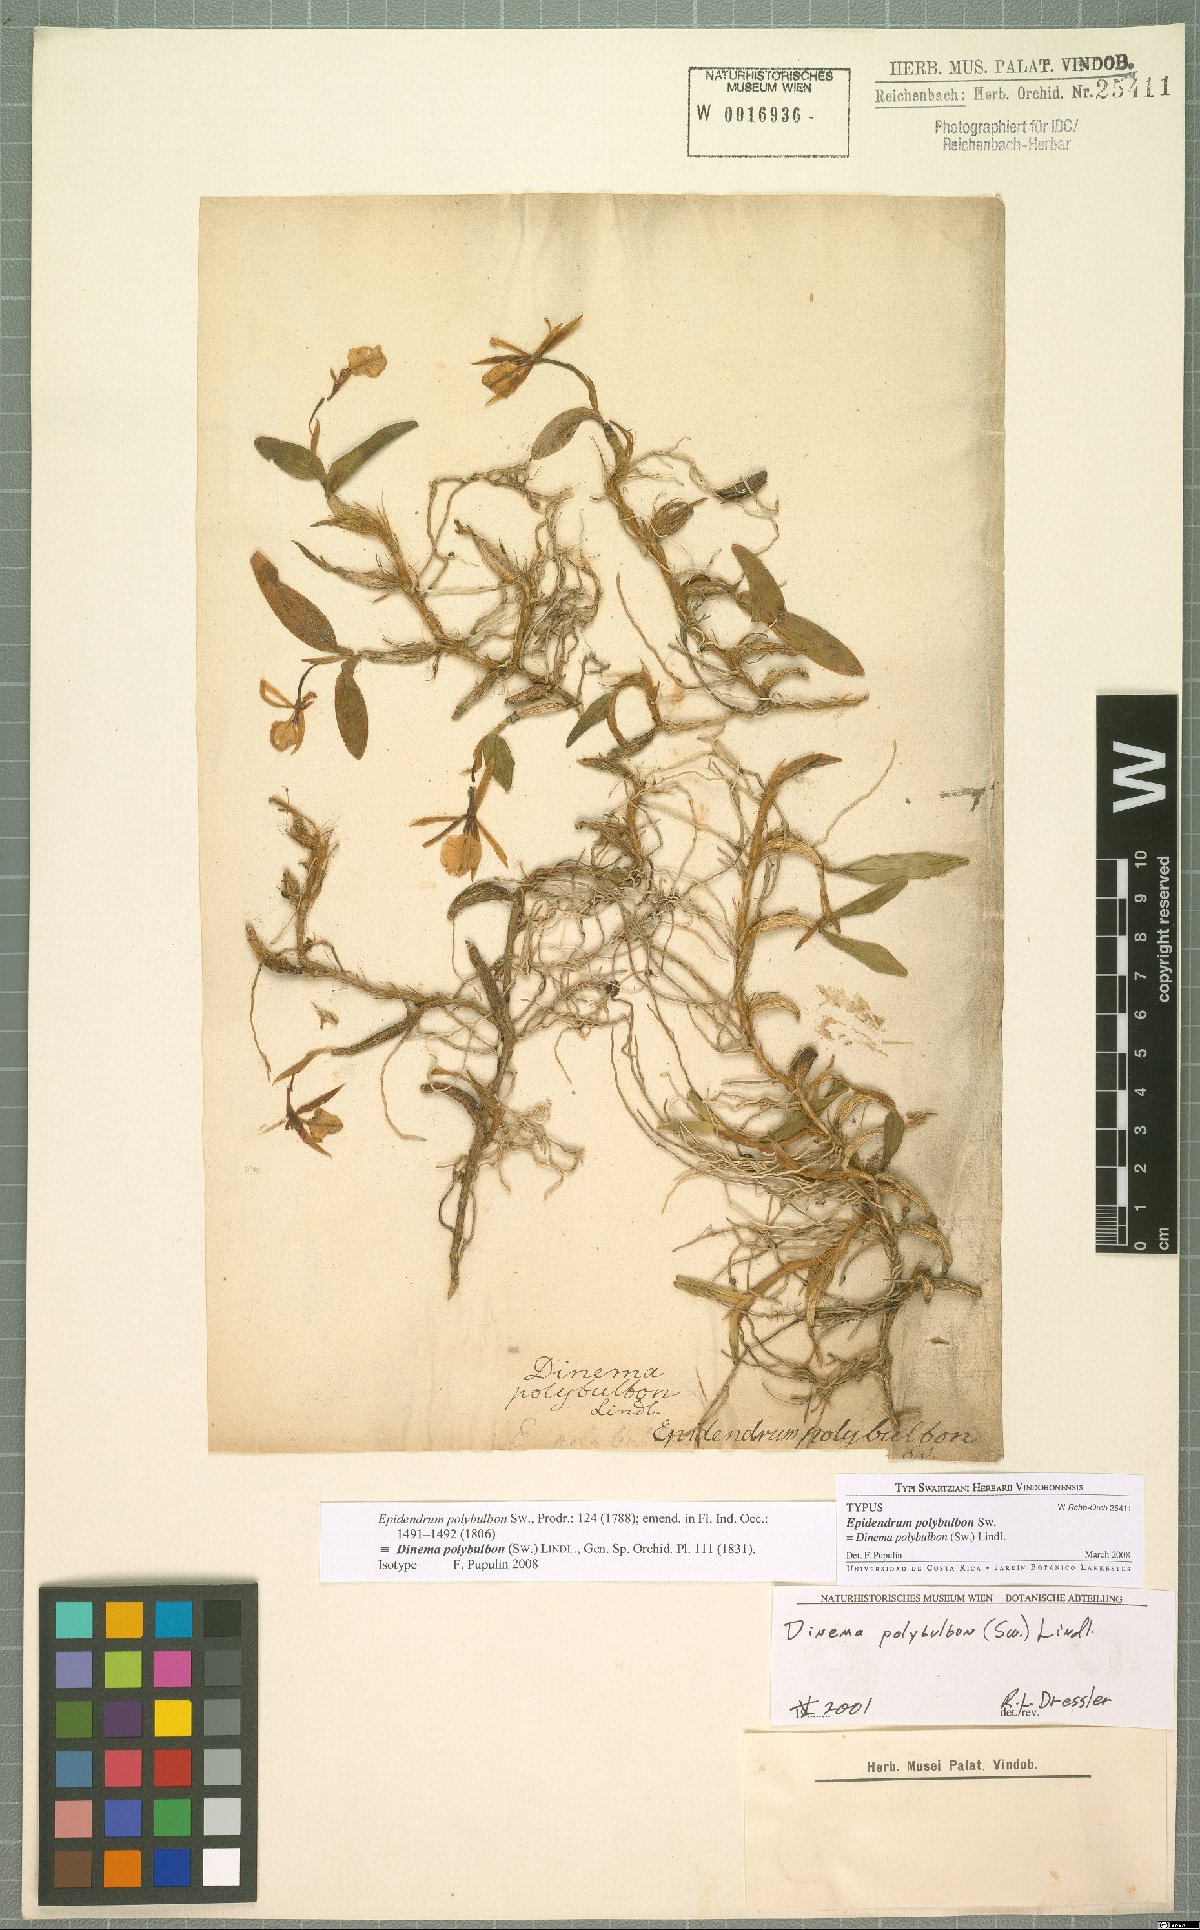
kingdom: Plantae
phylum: Tracheophyta
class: Liliopsida
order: Asparagales
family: Orchidaceae
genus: Dinema
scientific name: Dinema polybulbon
